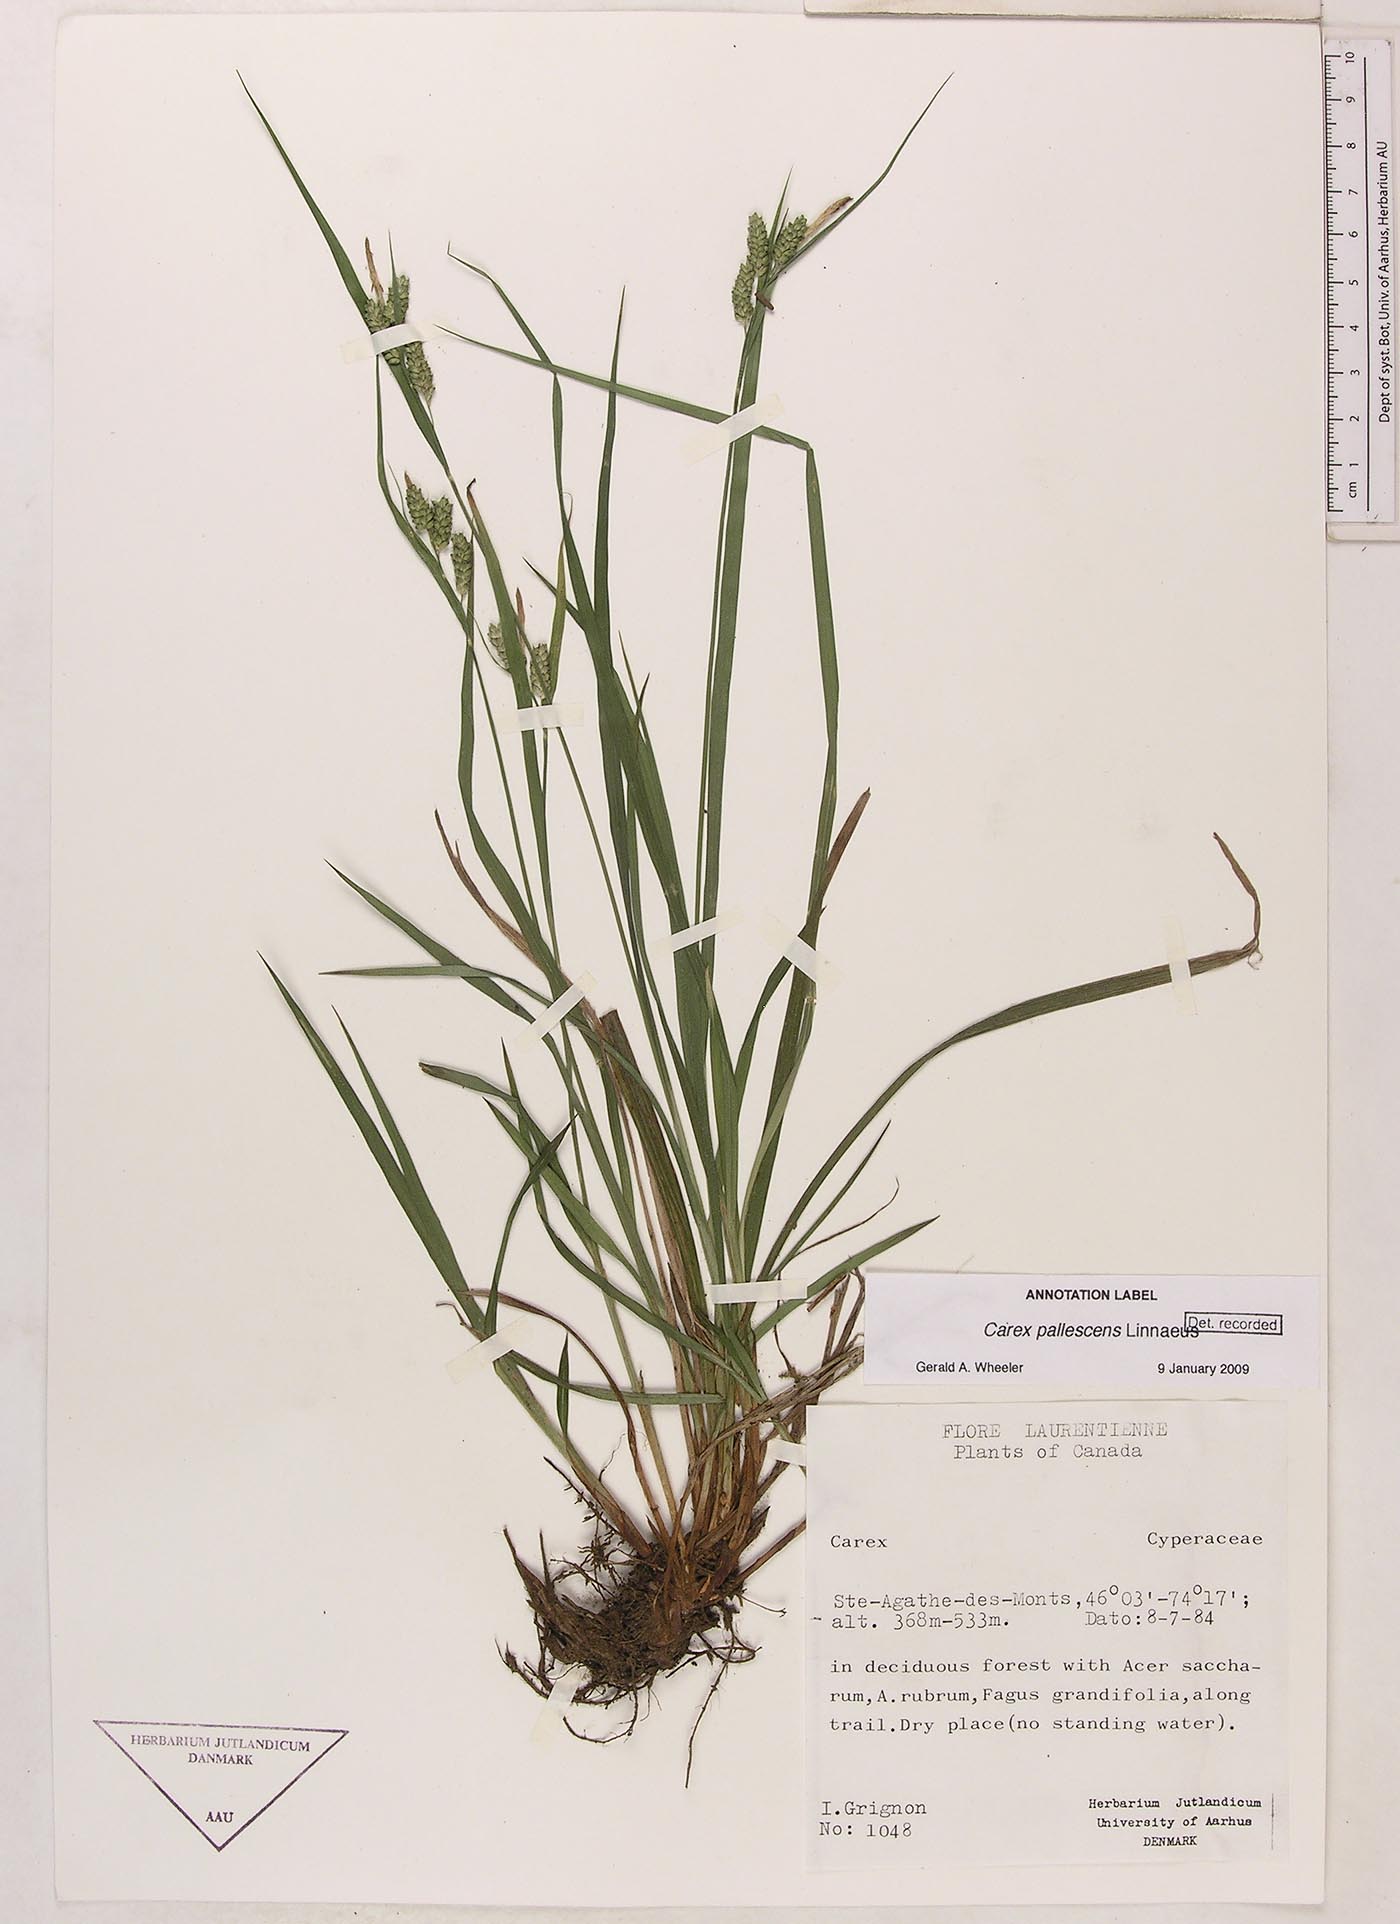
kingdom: Plantae
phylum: Tracheophyta
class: Liliopsida
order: Poales
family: Cyperaceae
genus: Carex
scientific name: Carex pallescens
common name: Pale sedge
